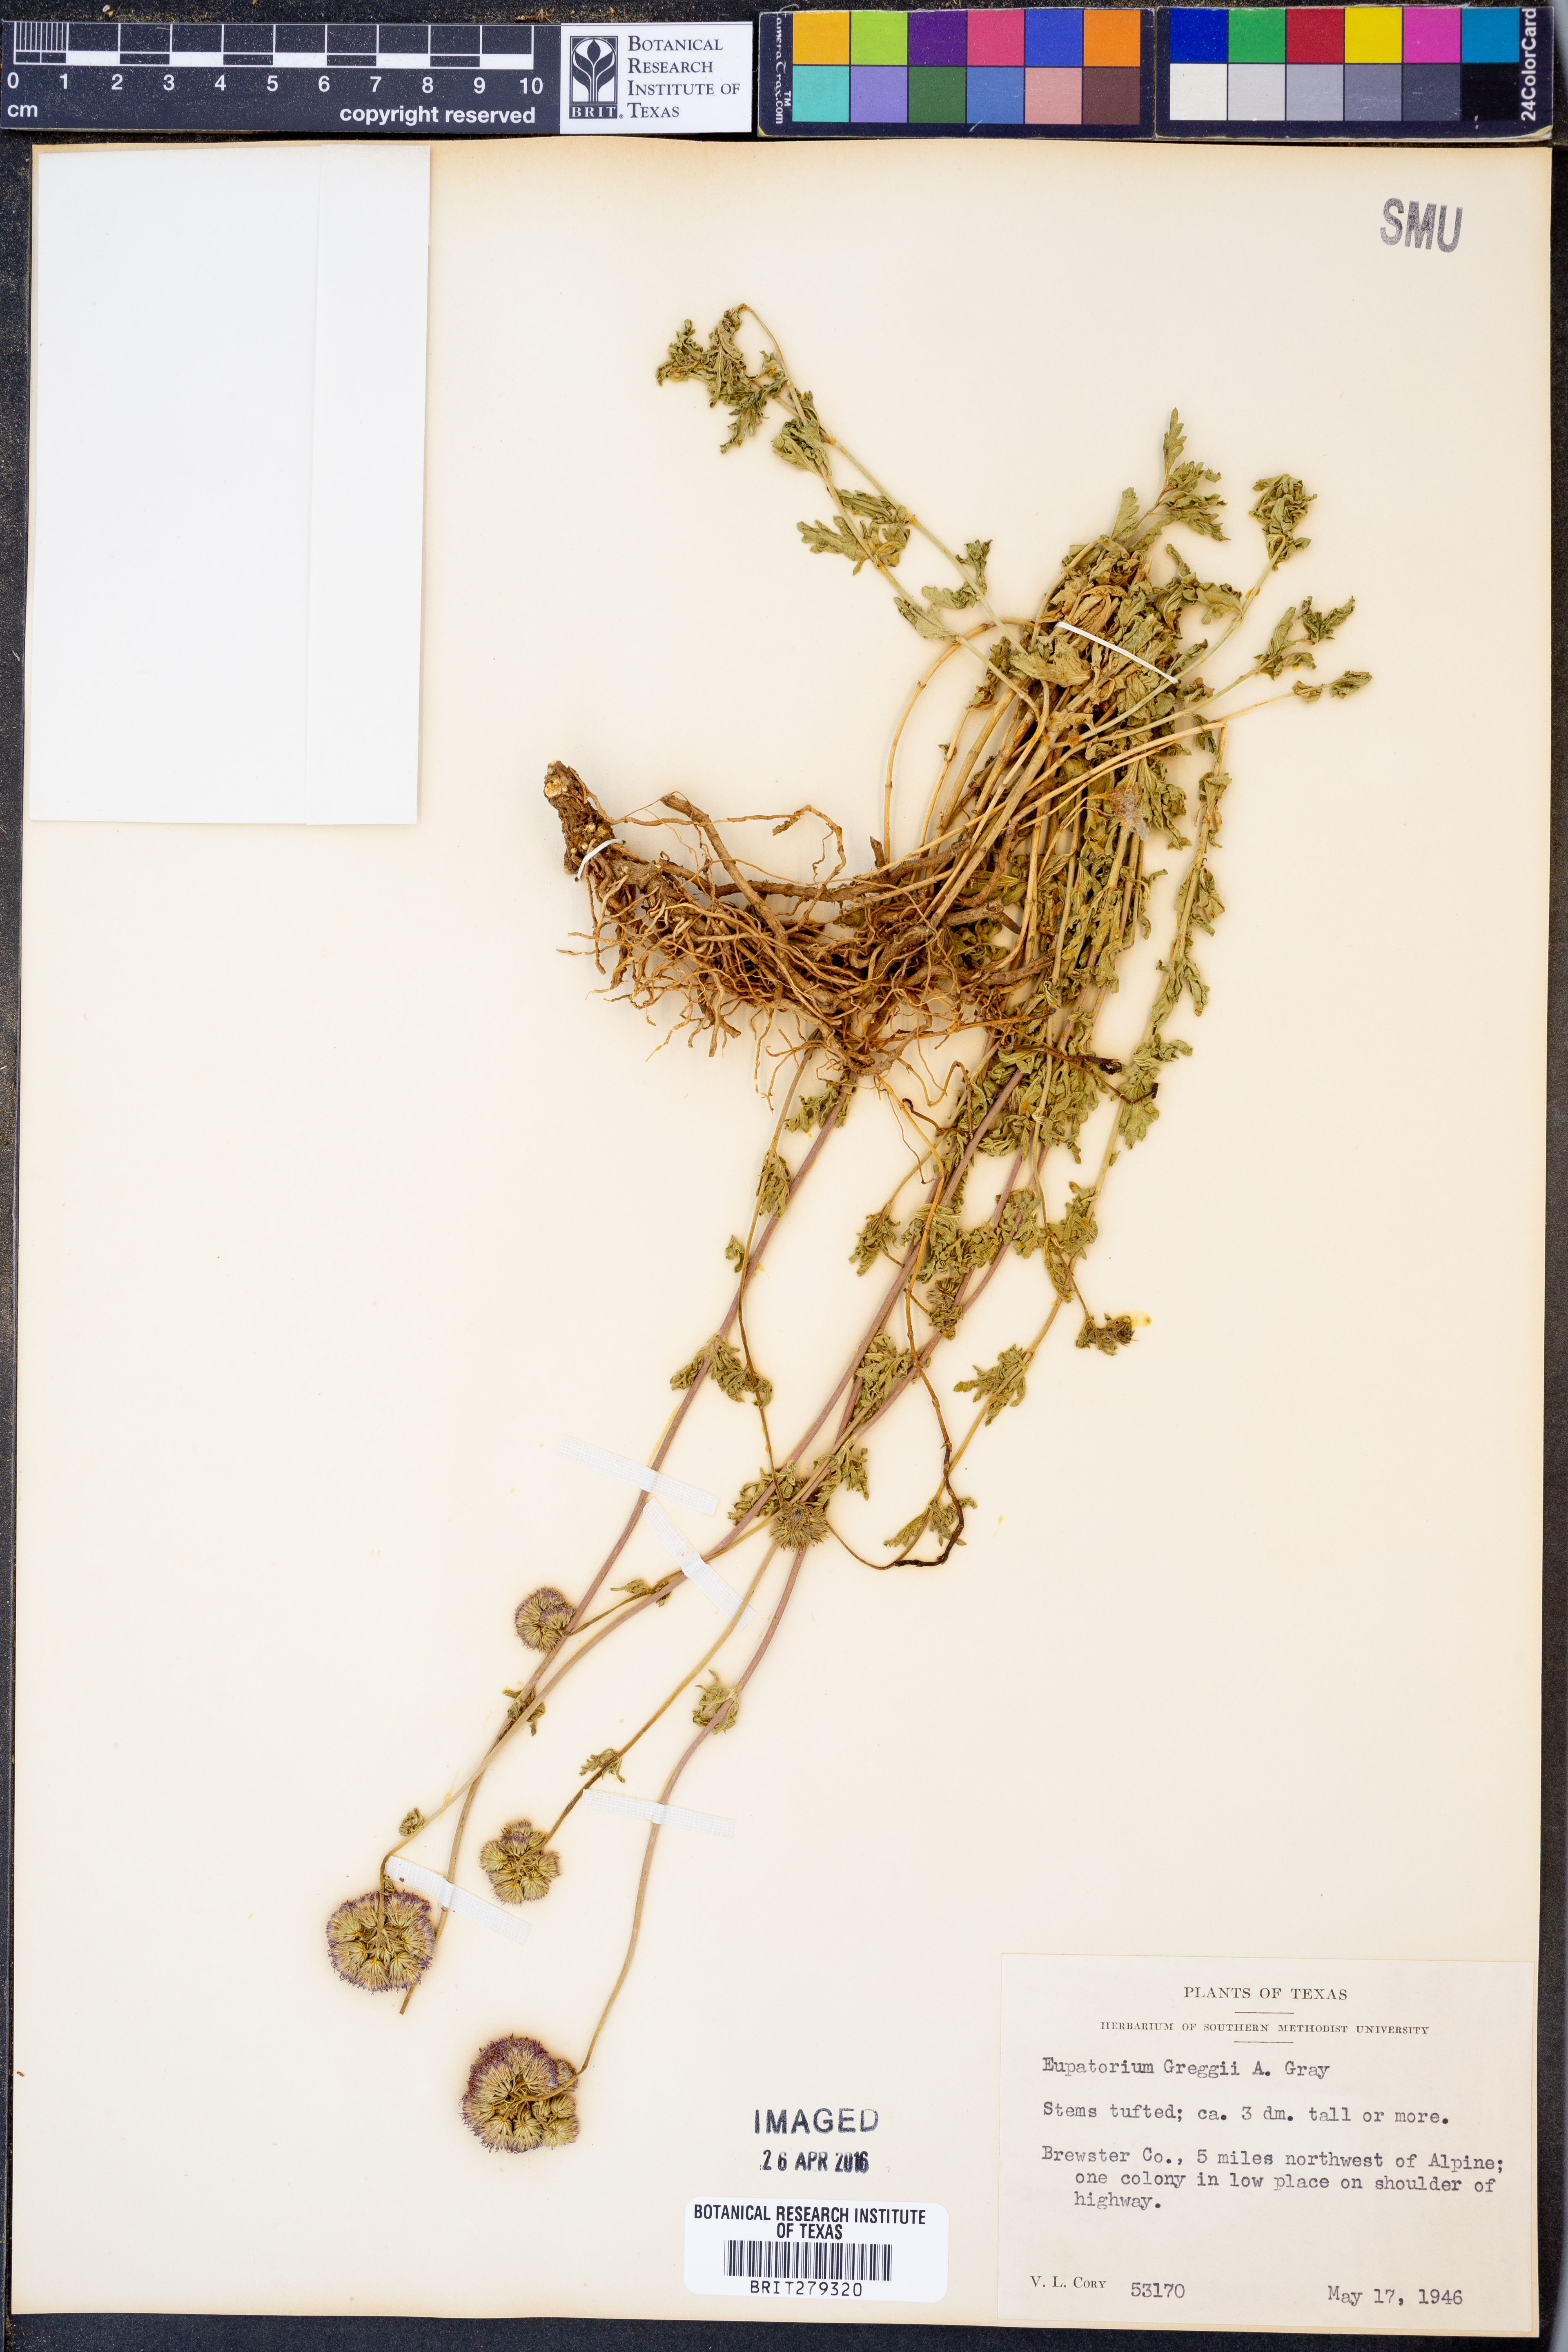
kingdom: Plantae
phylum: Tracheophyta
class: Magnoliopsida
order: Asterales
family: Asteraceae
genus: Conoclinium
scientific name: Conoclinium dissectum
